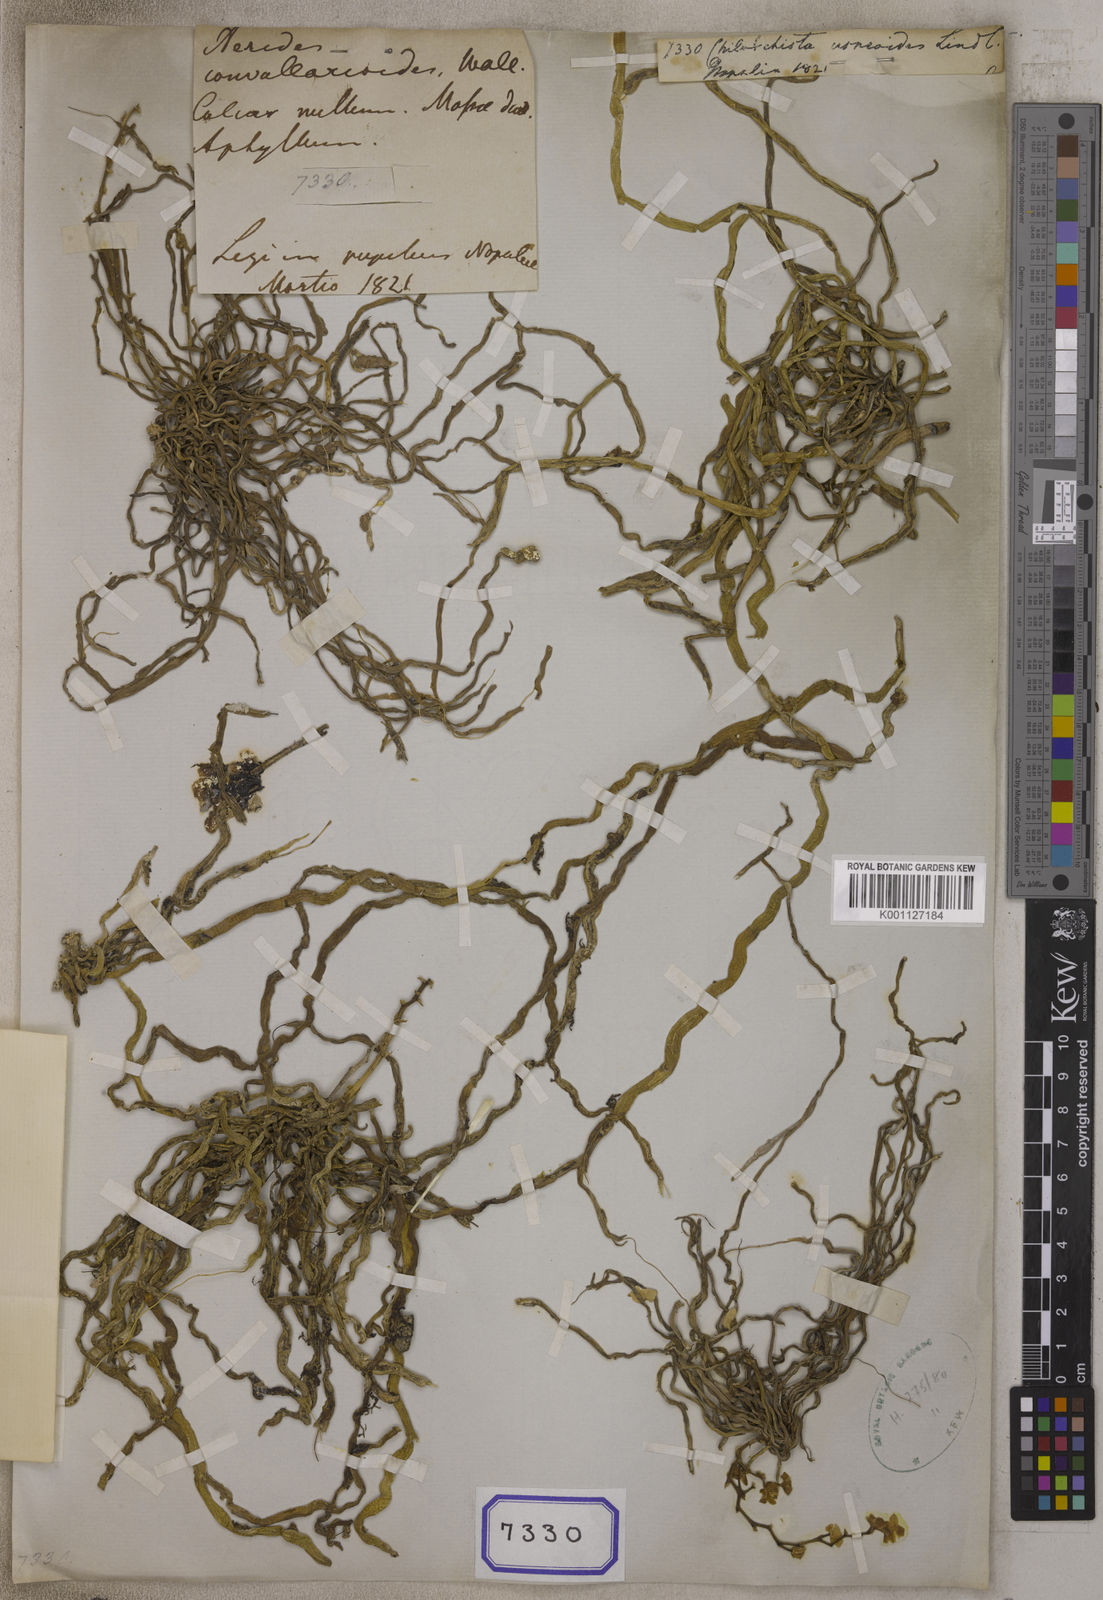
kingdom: Plantae
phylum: Tracheophyta
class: Liliopsida
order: Asparagales
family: Orchidaceae
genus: Chiloschista
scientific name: Chiloschista usneoides
